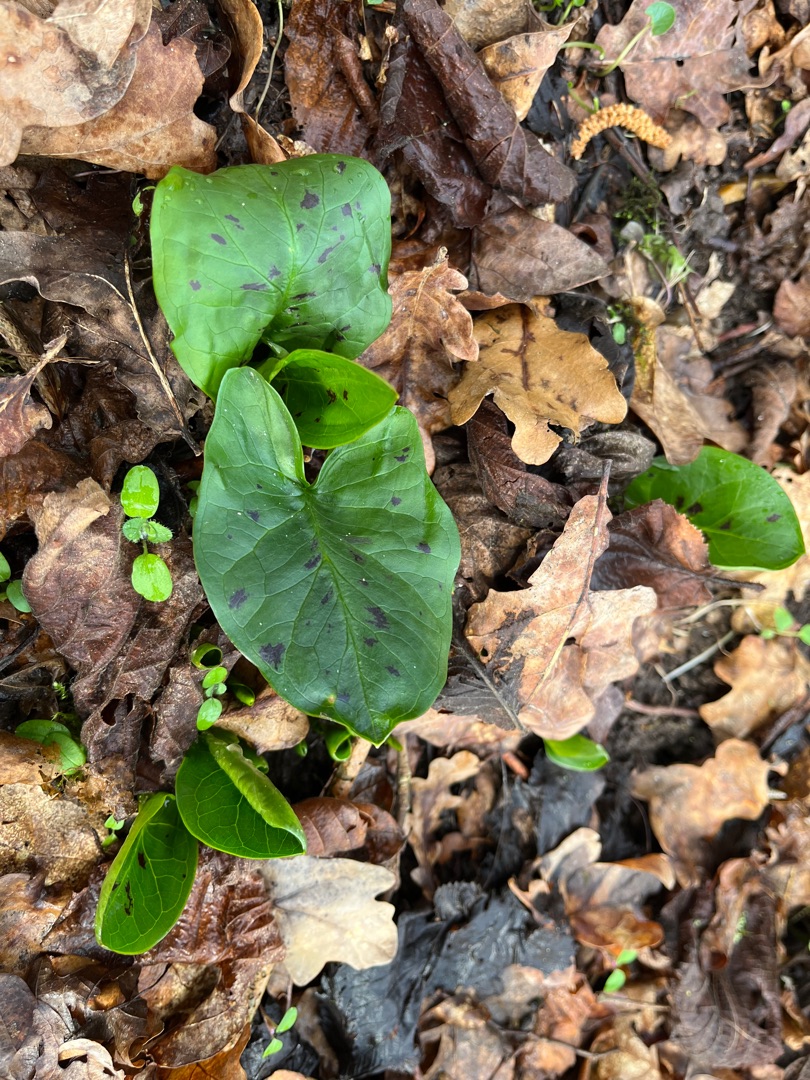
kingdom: Plantae
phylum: Tracheophyta
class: Liliopsida
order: Alismatales
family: Araceae
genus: Arum
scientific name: Arum maculatum
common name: Plettet arum
